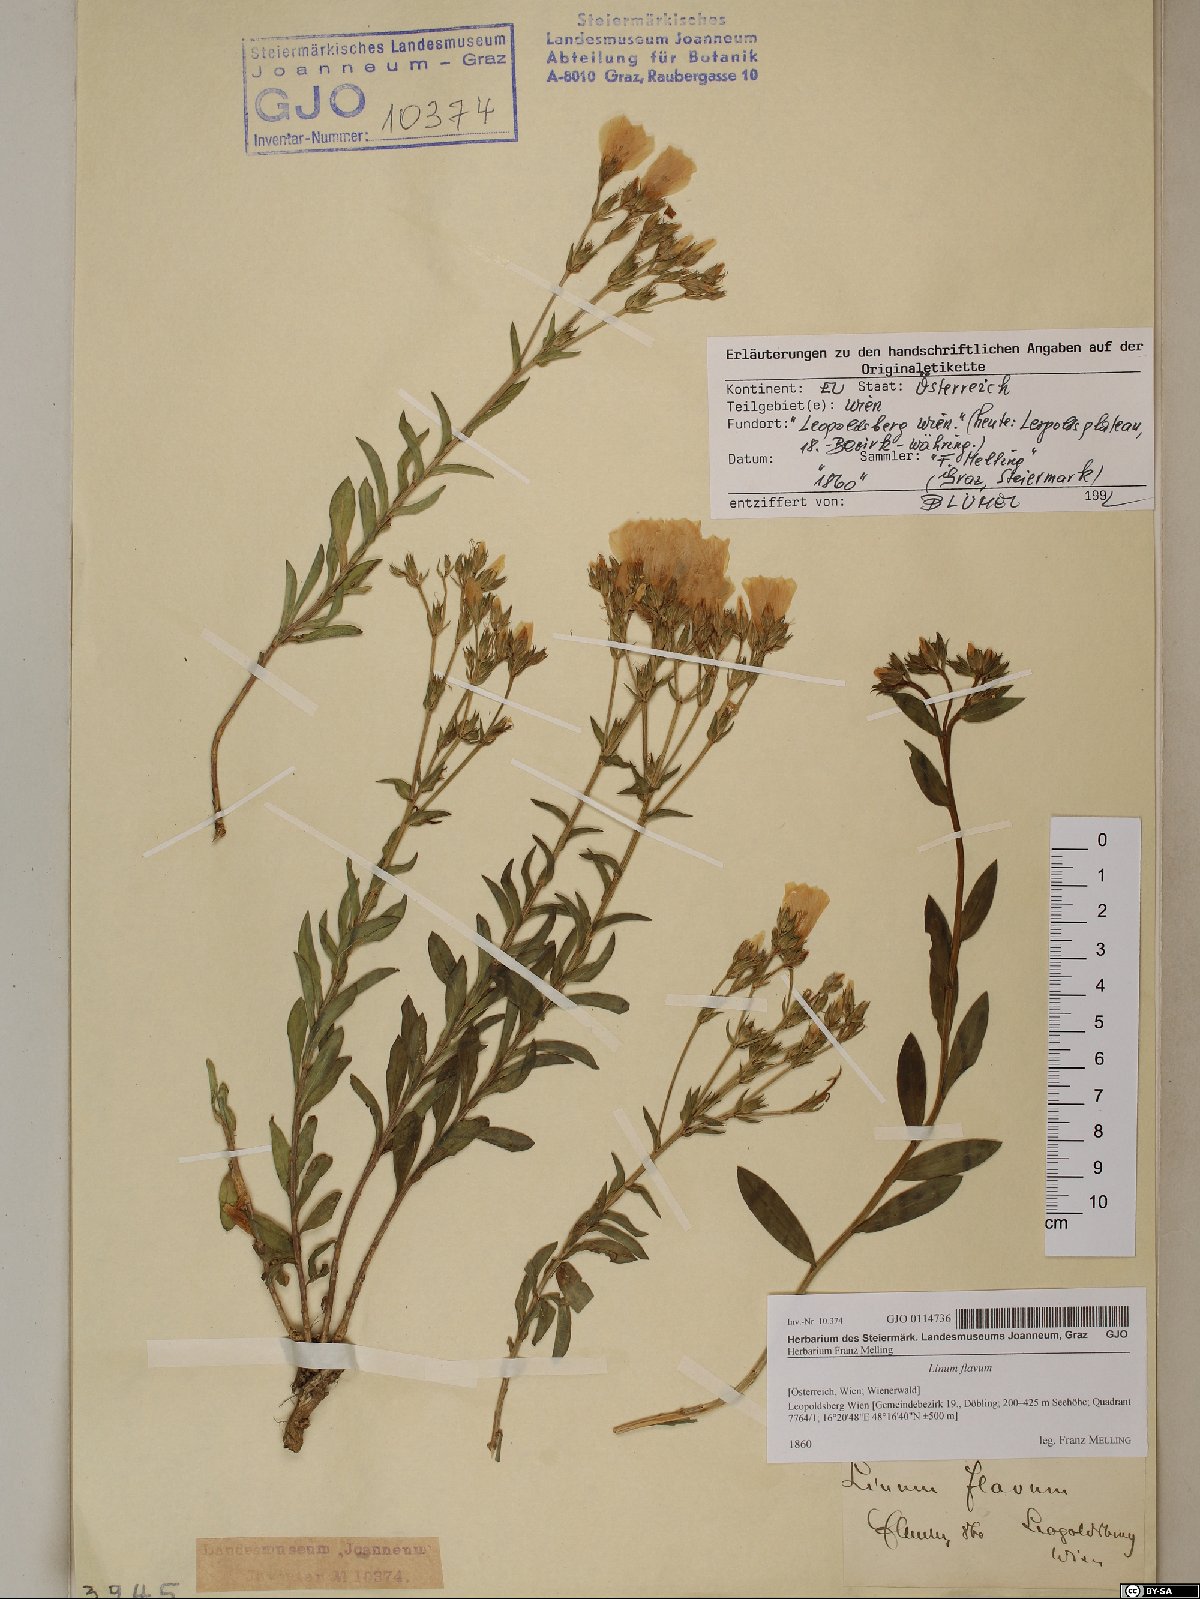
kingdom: Plantae
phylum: Tracheophyta
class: Magnoliopsida
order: Malpighiales
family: Linaceae
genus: Linum
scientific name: Linum flavum
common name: Yellow flax
